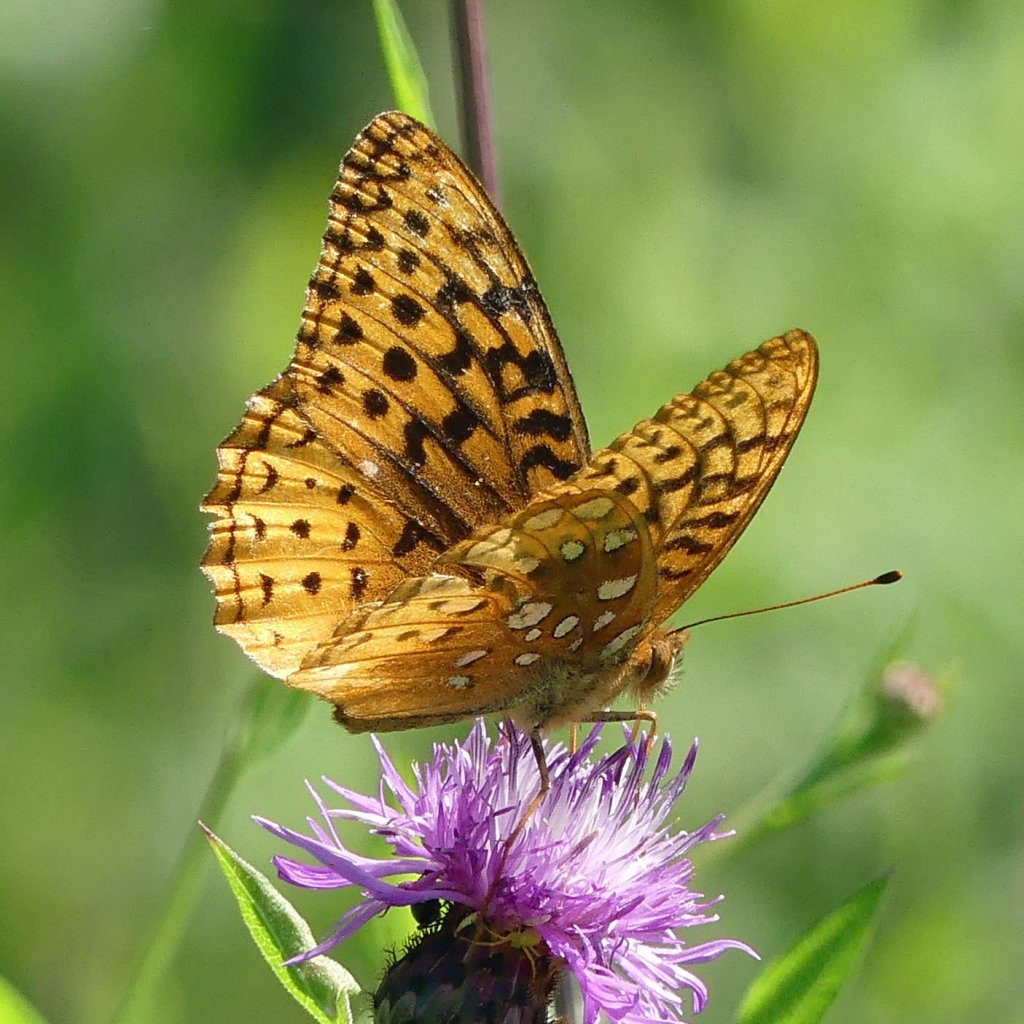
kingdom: Animalia
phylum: Arthropoda
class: Insecta
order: Lepidoptera
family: Nymphalidae
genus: Speyeria
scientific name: Speyeria cybele
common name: Great Spangled Fritillary
